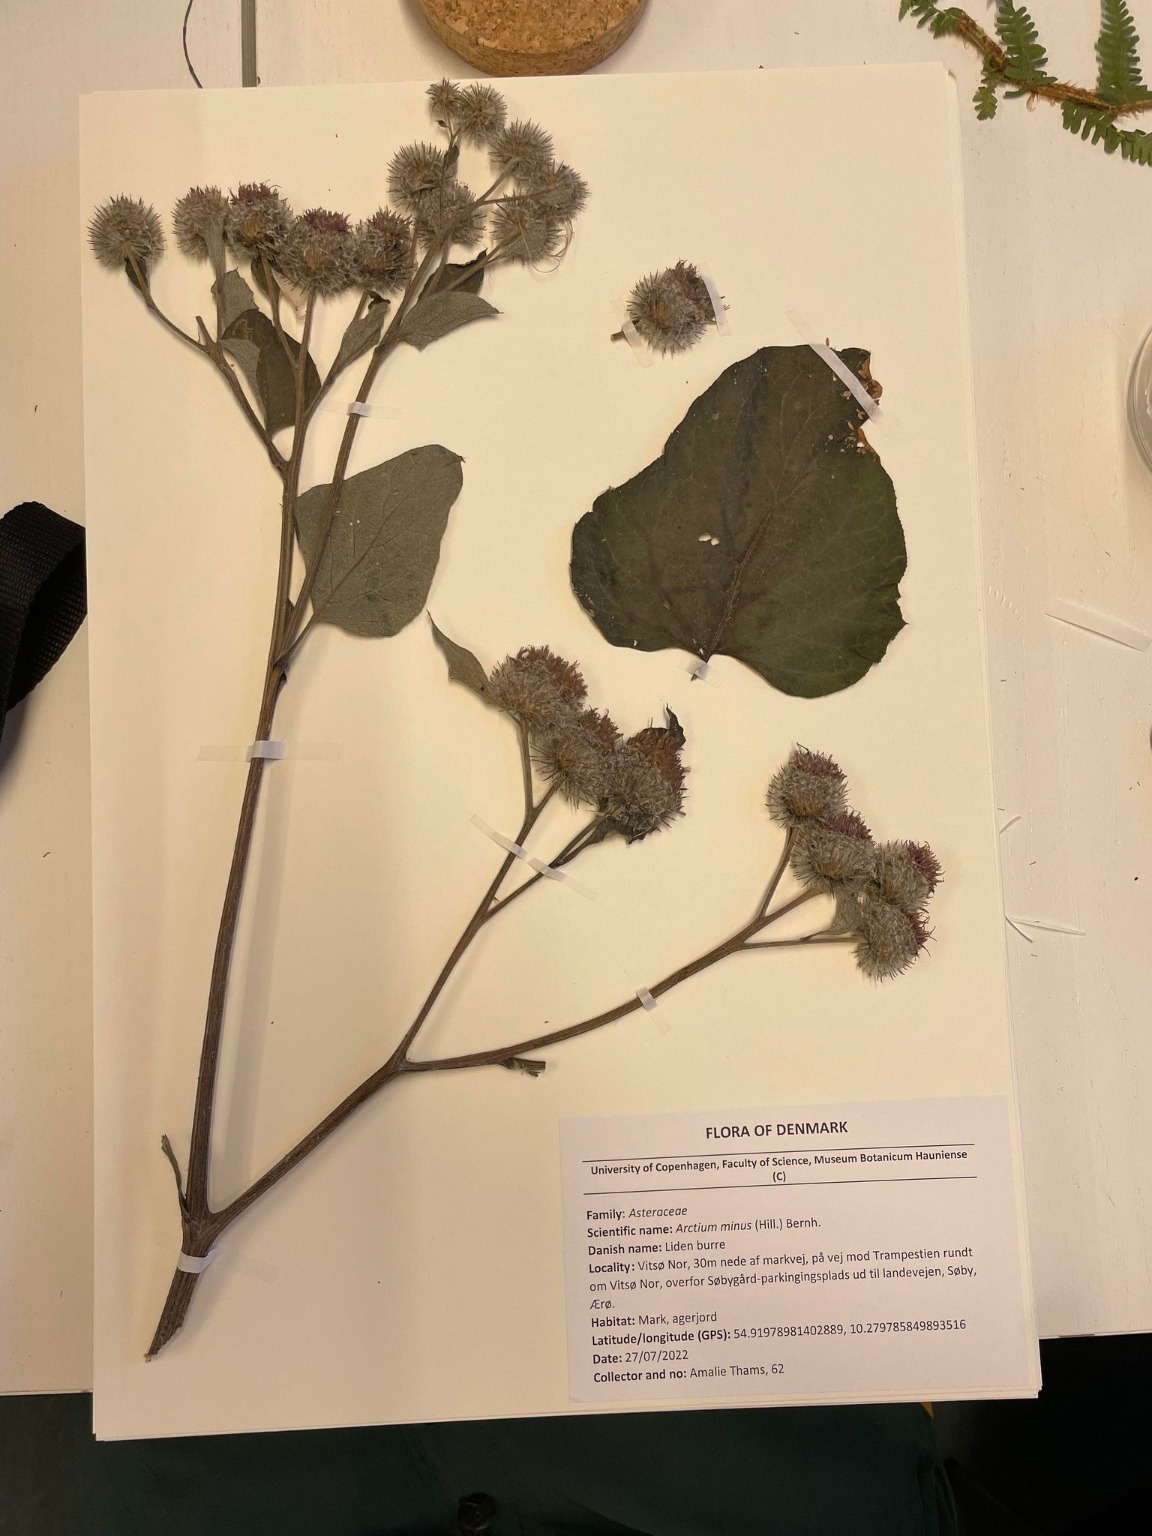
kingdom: Plantae
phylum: Tracheophyta
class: Magnoliopsida
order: Asterales
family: Asteraceae
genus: Arctium
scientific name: Arctium tomentosum
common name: Filtet burre
